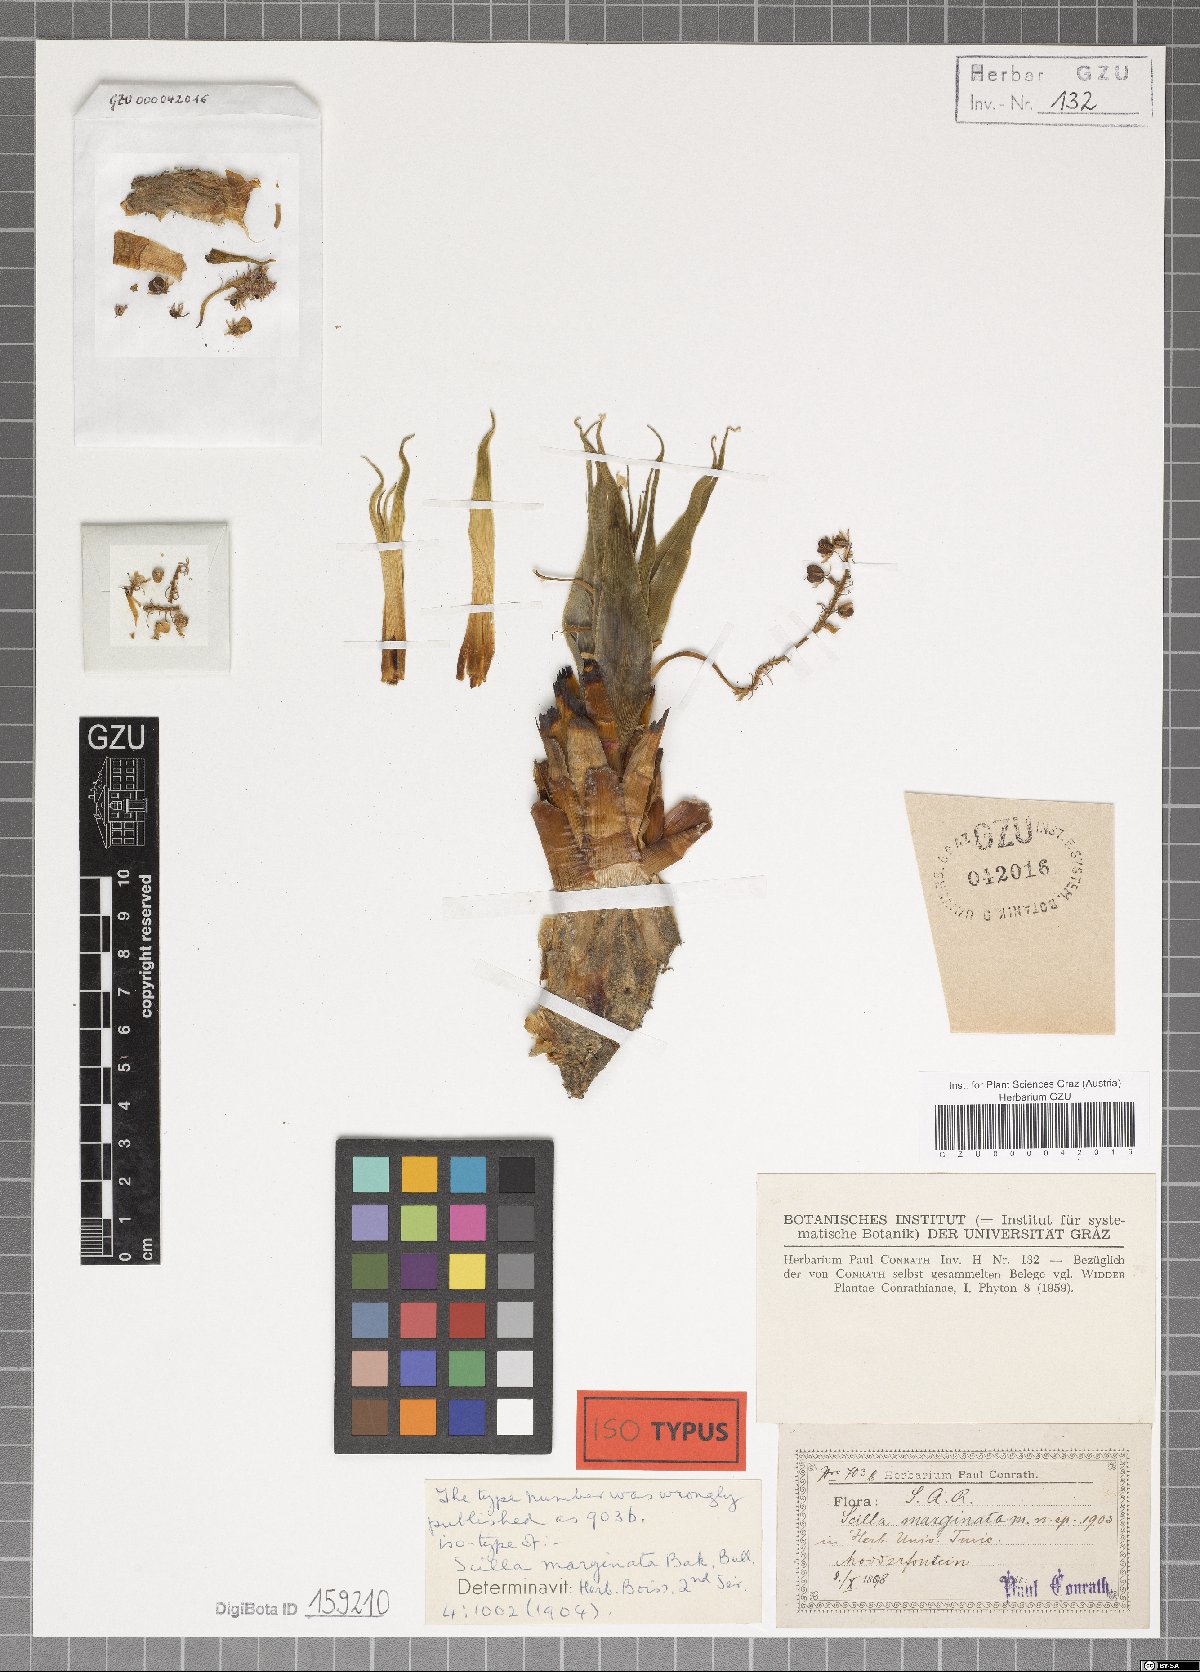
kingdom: Plantae
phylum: Tracheophyta
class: Liliopsida
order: Asparagales
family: Asparagaceae
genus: Ledebouria
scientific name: Ledebouria marginata
